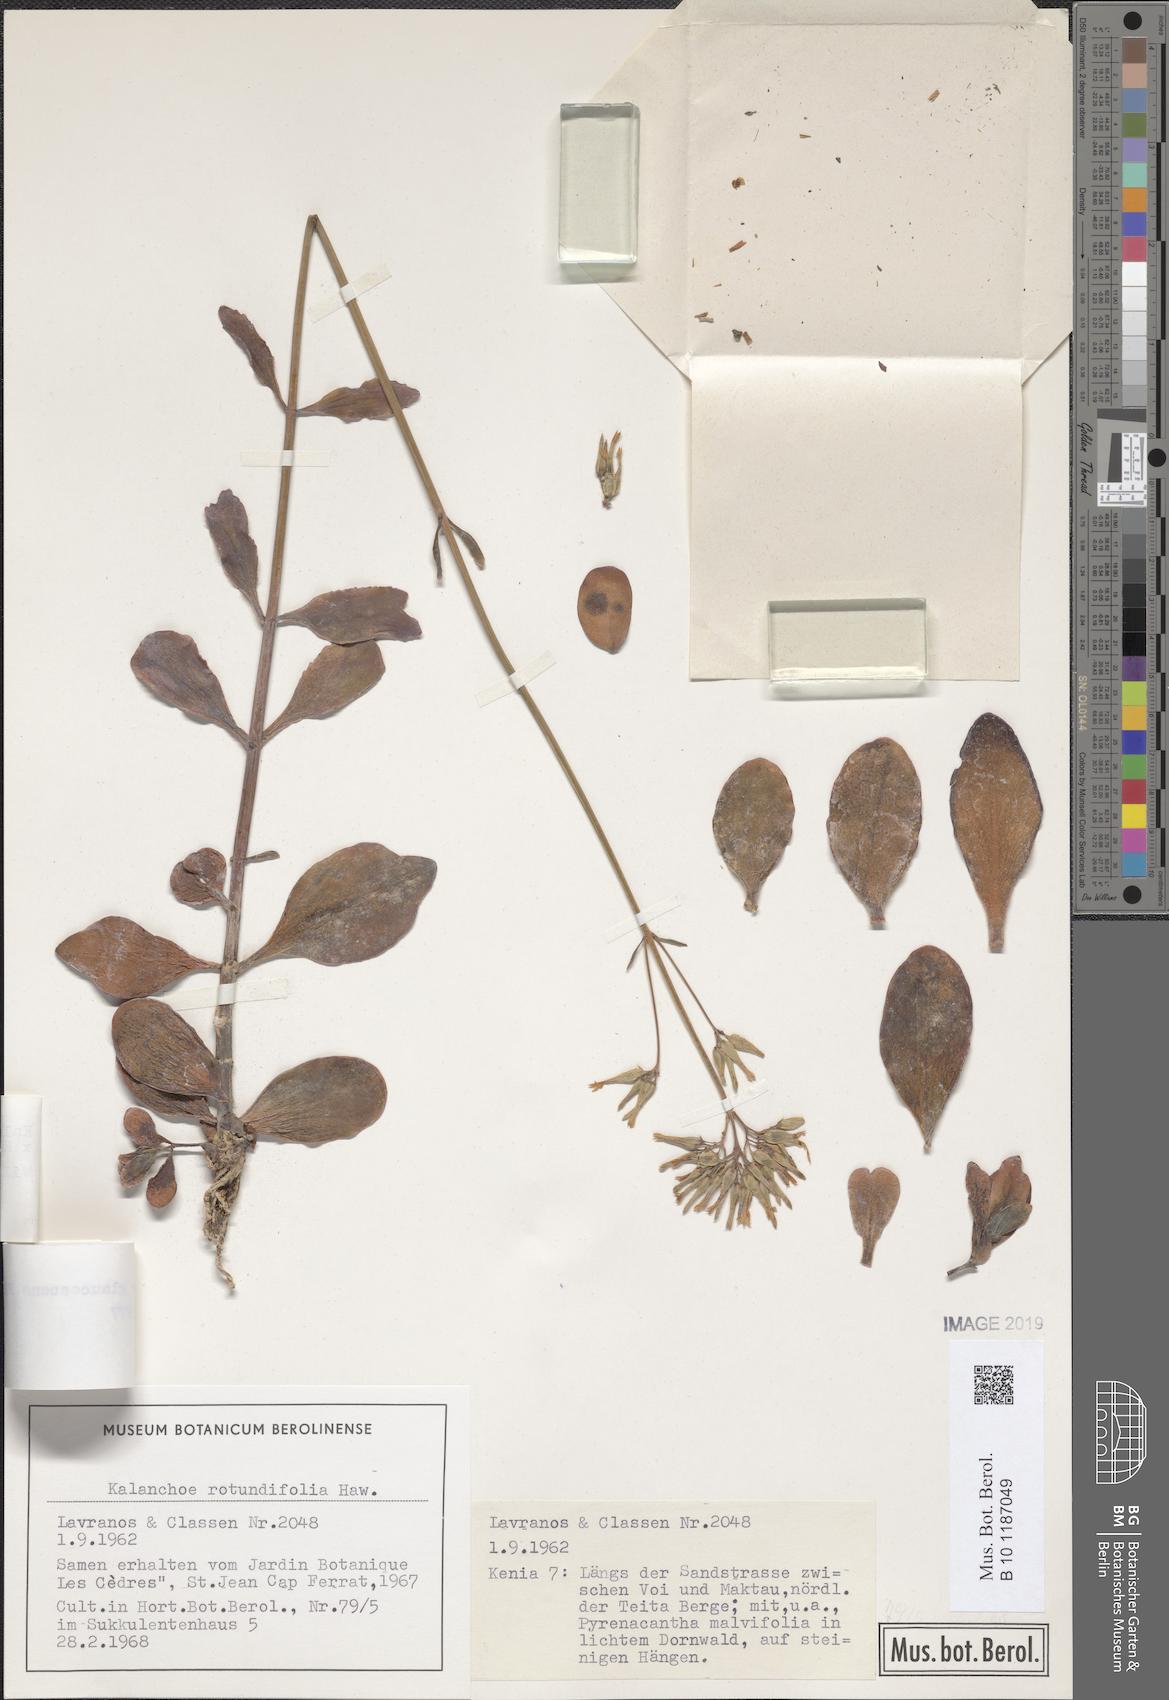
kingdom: Plantae
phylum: Tracheophyta
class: Magnoliopsida
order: Saxifragales
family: Crassulaceae
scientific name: Crassulaceae
